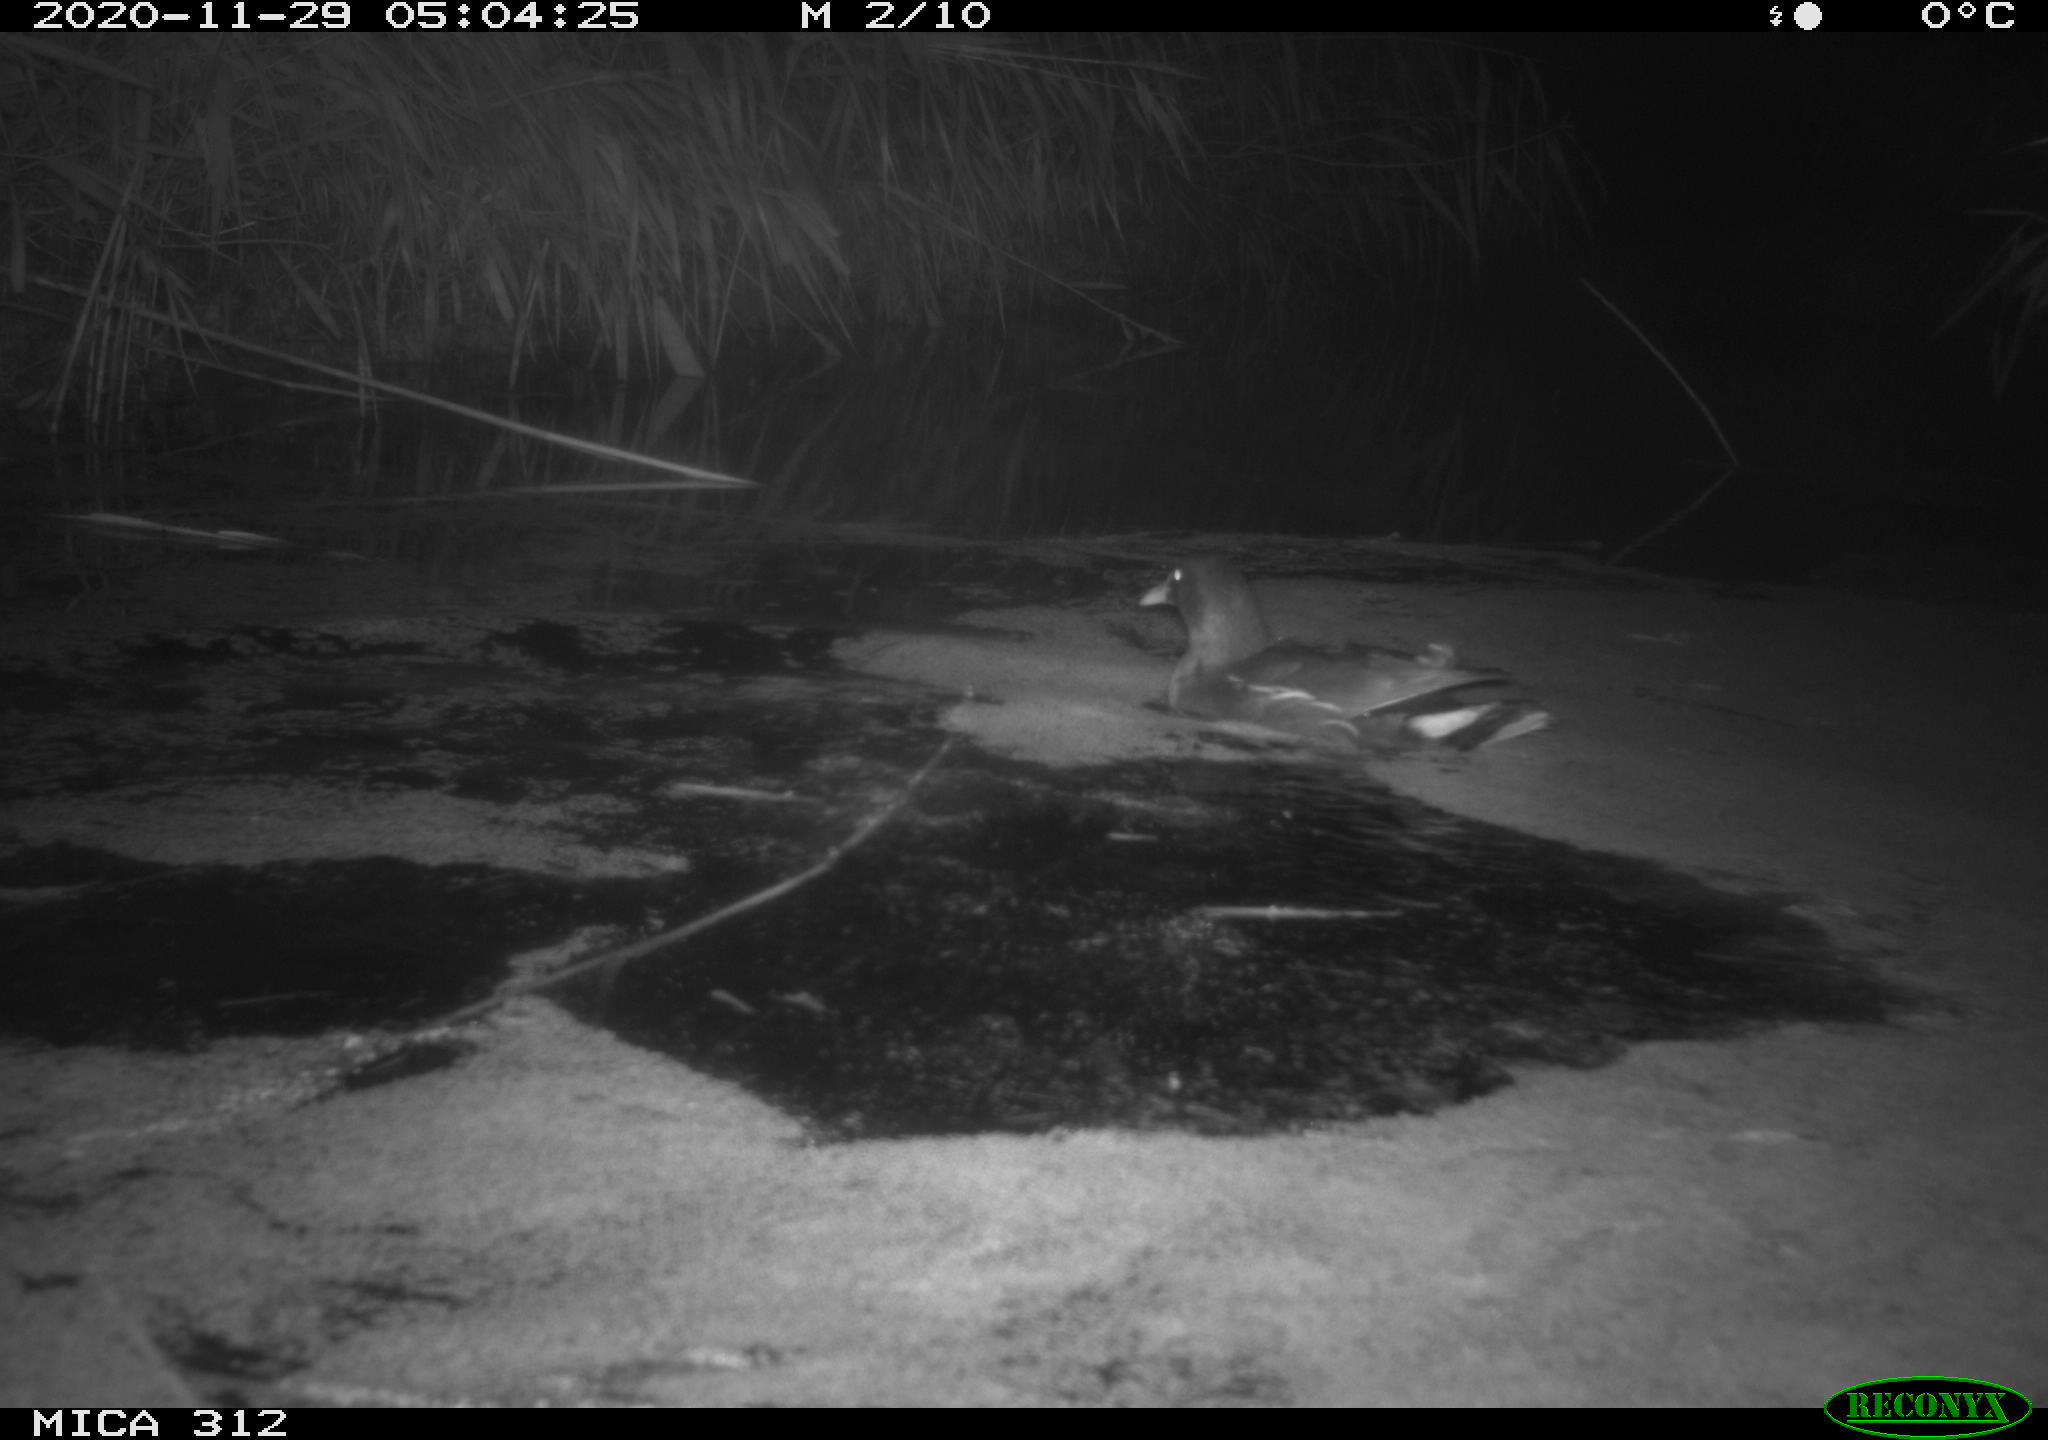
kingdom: Animalia
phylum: Chordata
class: Aves
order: Gruiformes
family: Rallidae
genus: Gallinula
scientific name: Gallinula chloropus
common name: Common moorhen
